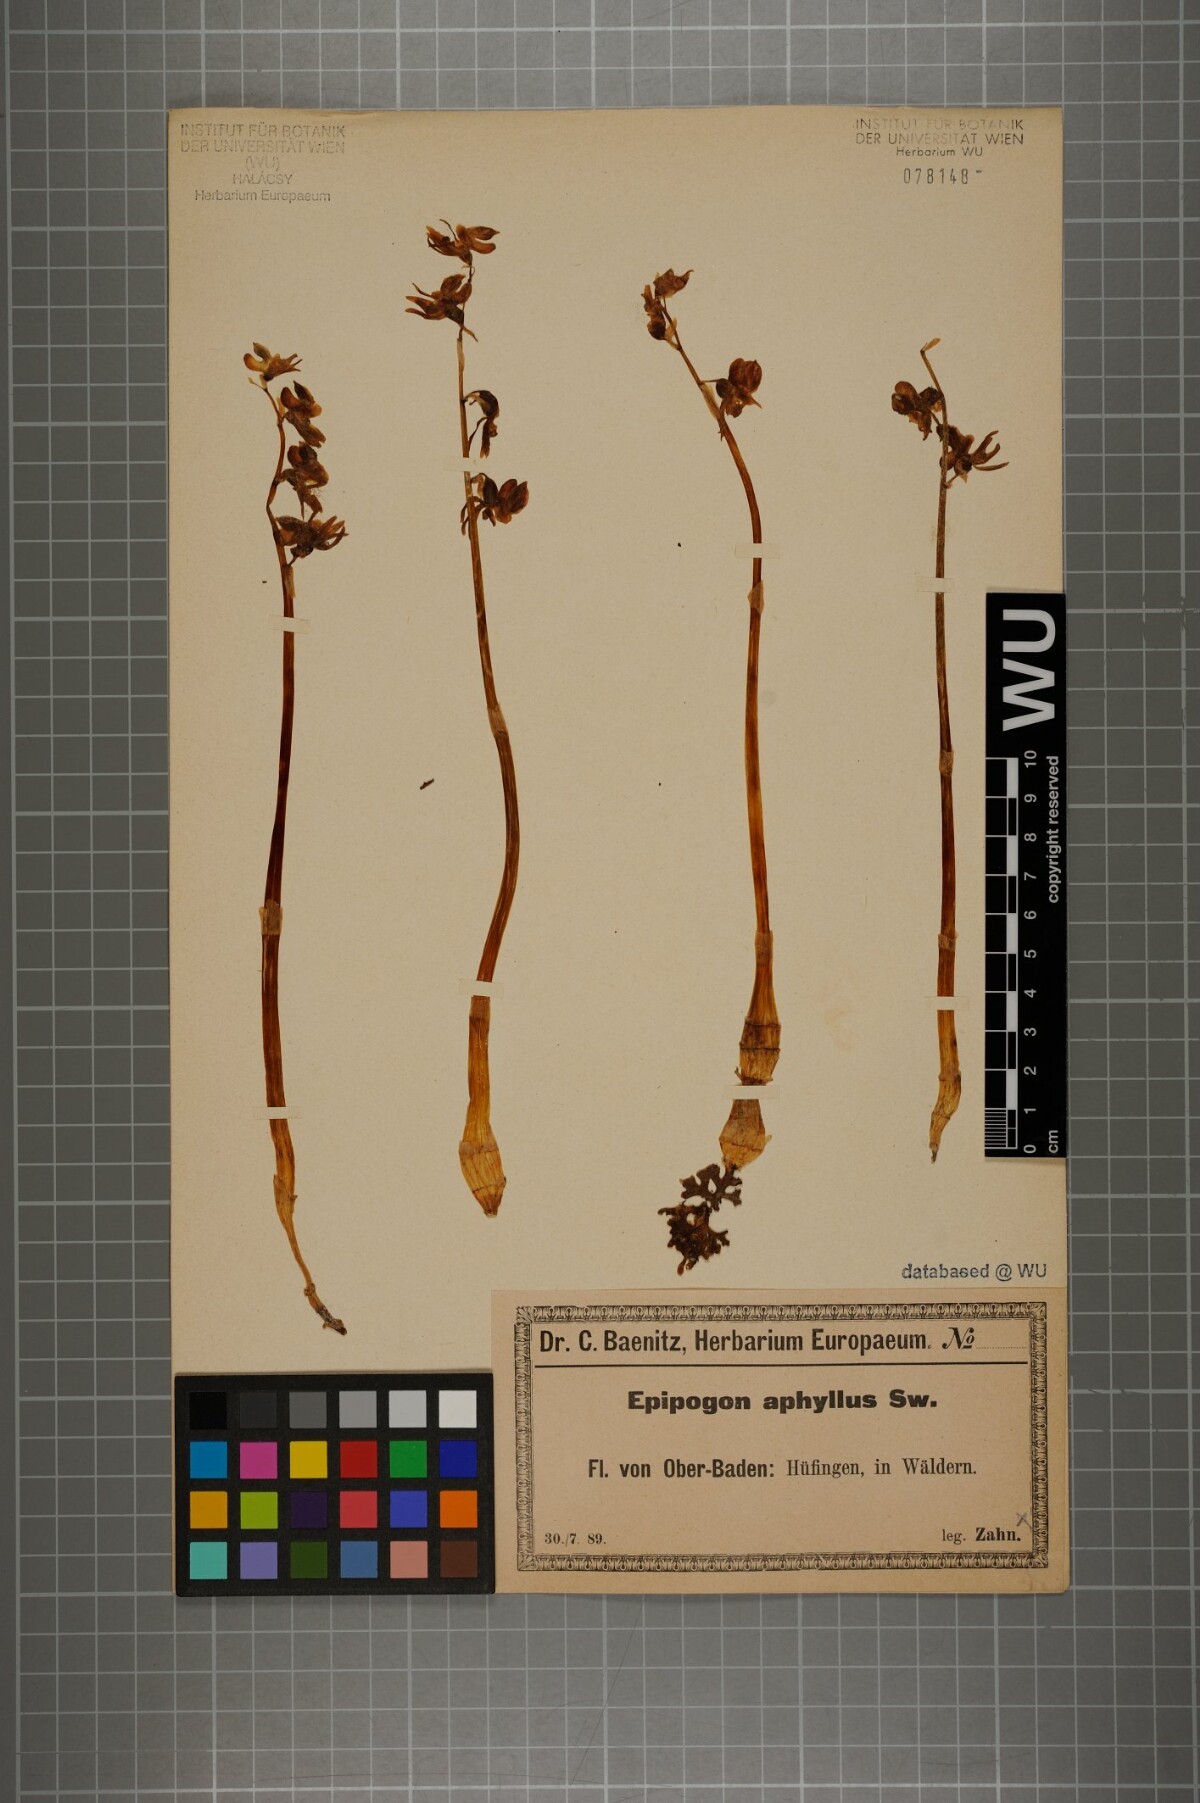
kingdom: Plantae
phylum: Tracheophyta
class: Liliopsida
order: Asparagales
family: Orchidaceae
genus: Epipogium
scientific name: Epipogium aphyllum
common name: Ghost orchid
